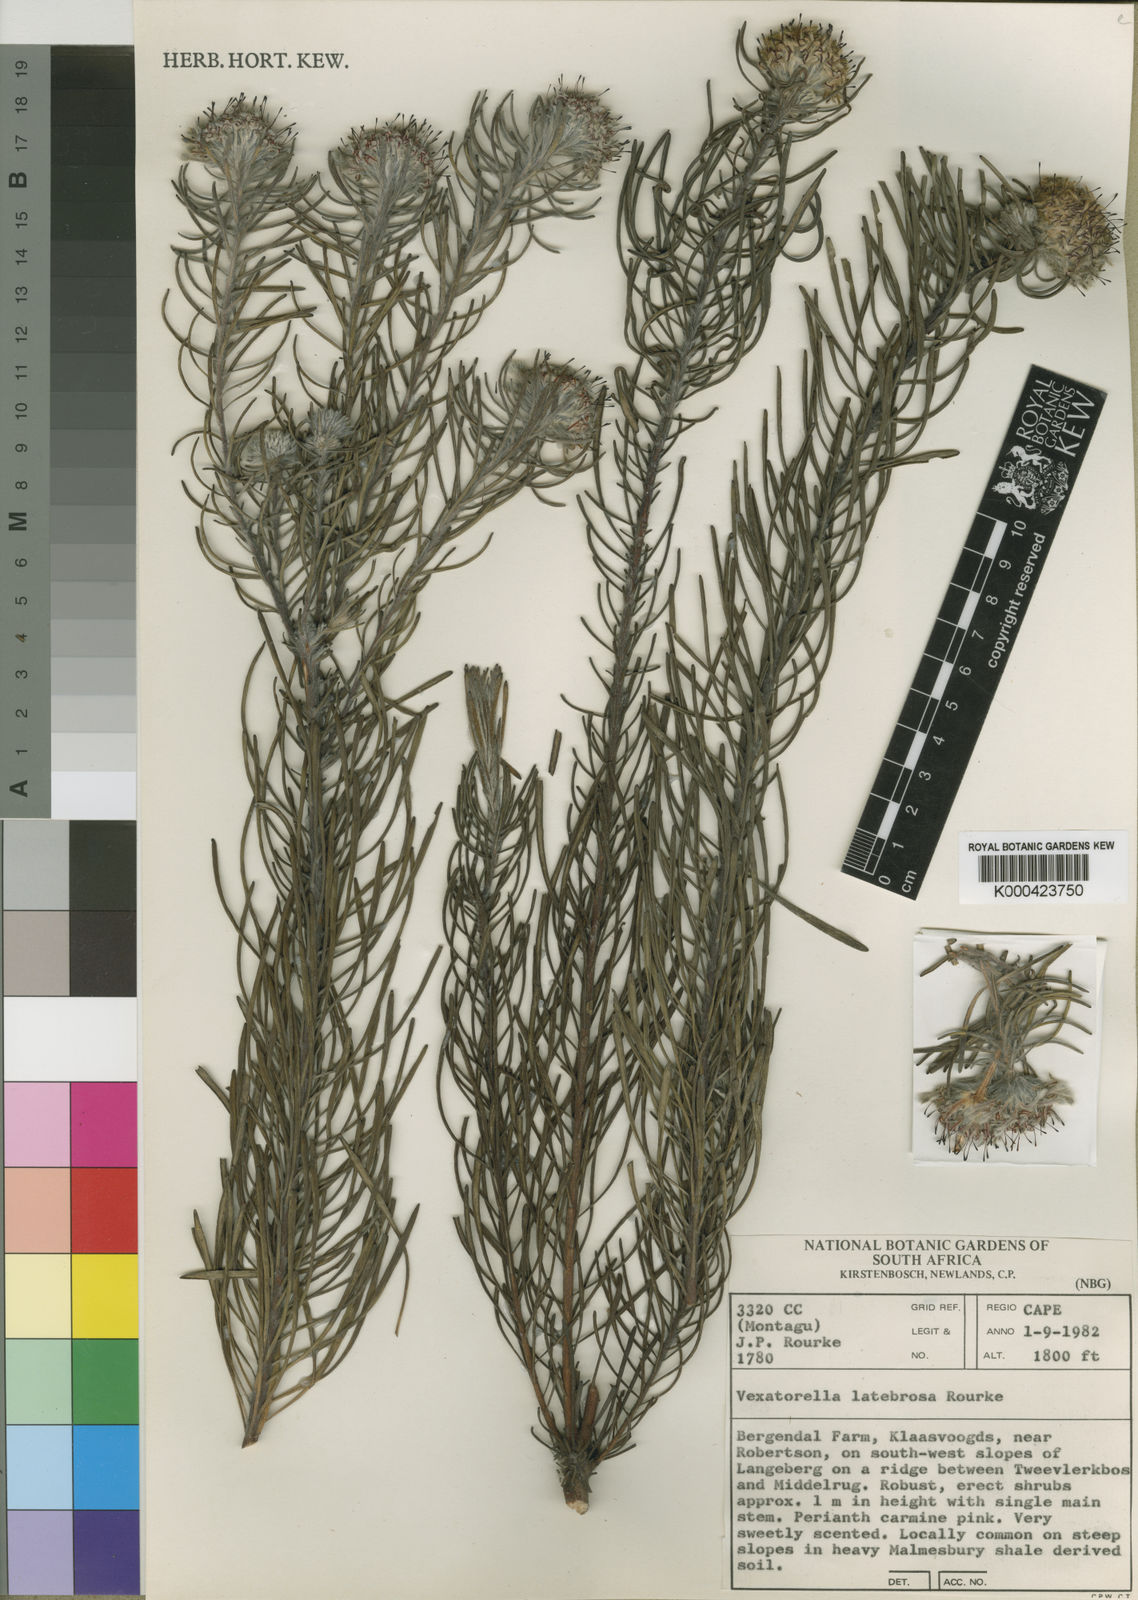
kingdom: Plantae
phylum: Tracheophyta
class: Magnoliopsida
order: Proteales
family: Proteaceae
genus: Vexatorella
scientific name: Vexatorella latebrosa
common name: Robertson vexator
